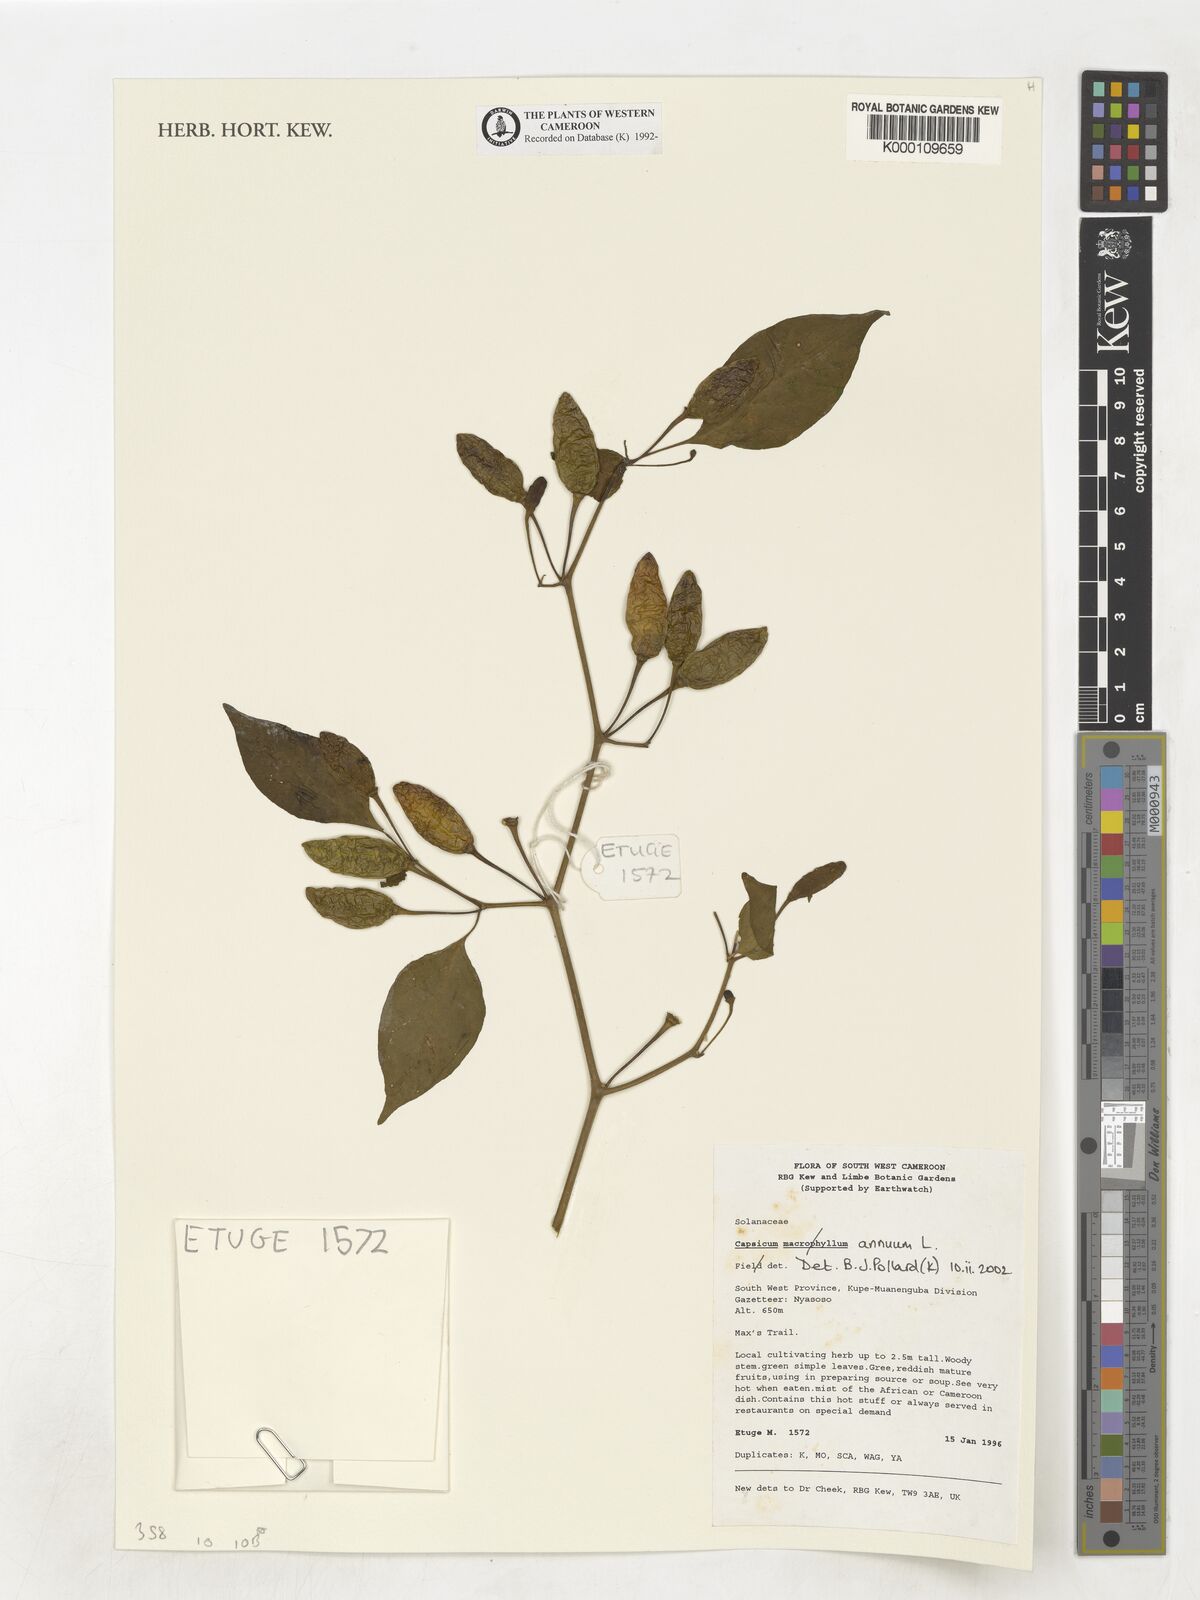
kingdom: Plantae
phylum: Tracheophyta
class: Magnoliopsida
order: Solanales
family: Solanaceae
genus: Capsicum
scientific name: Capsicum annuum
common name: Sweet pepper
